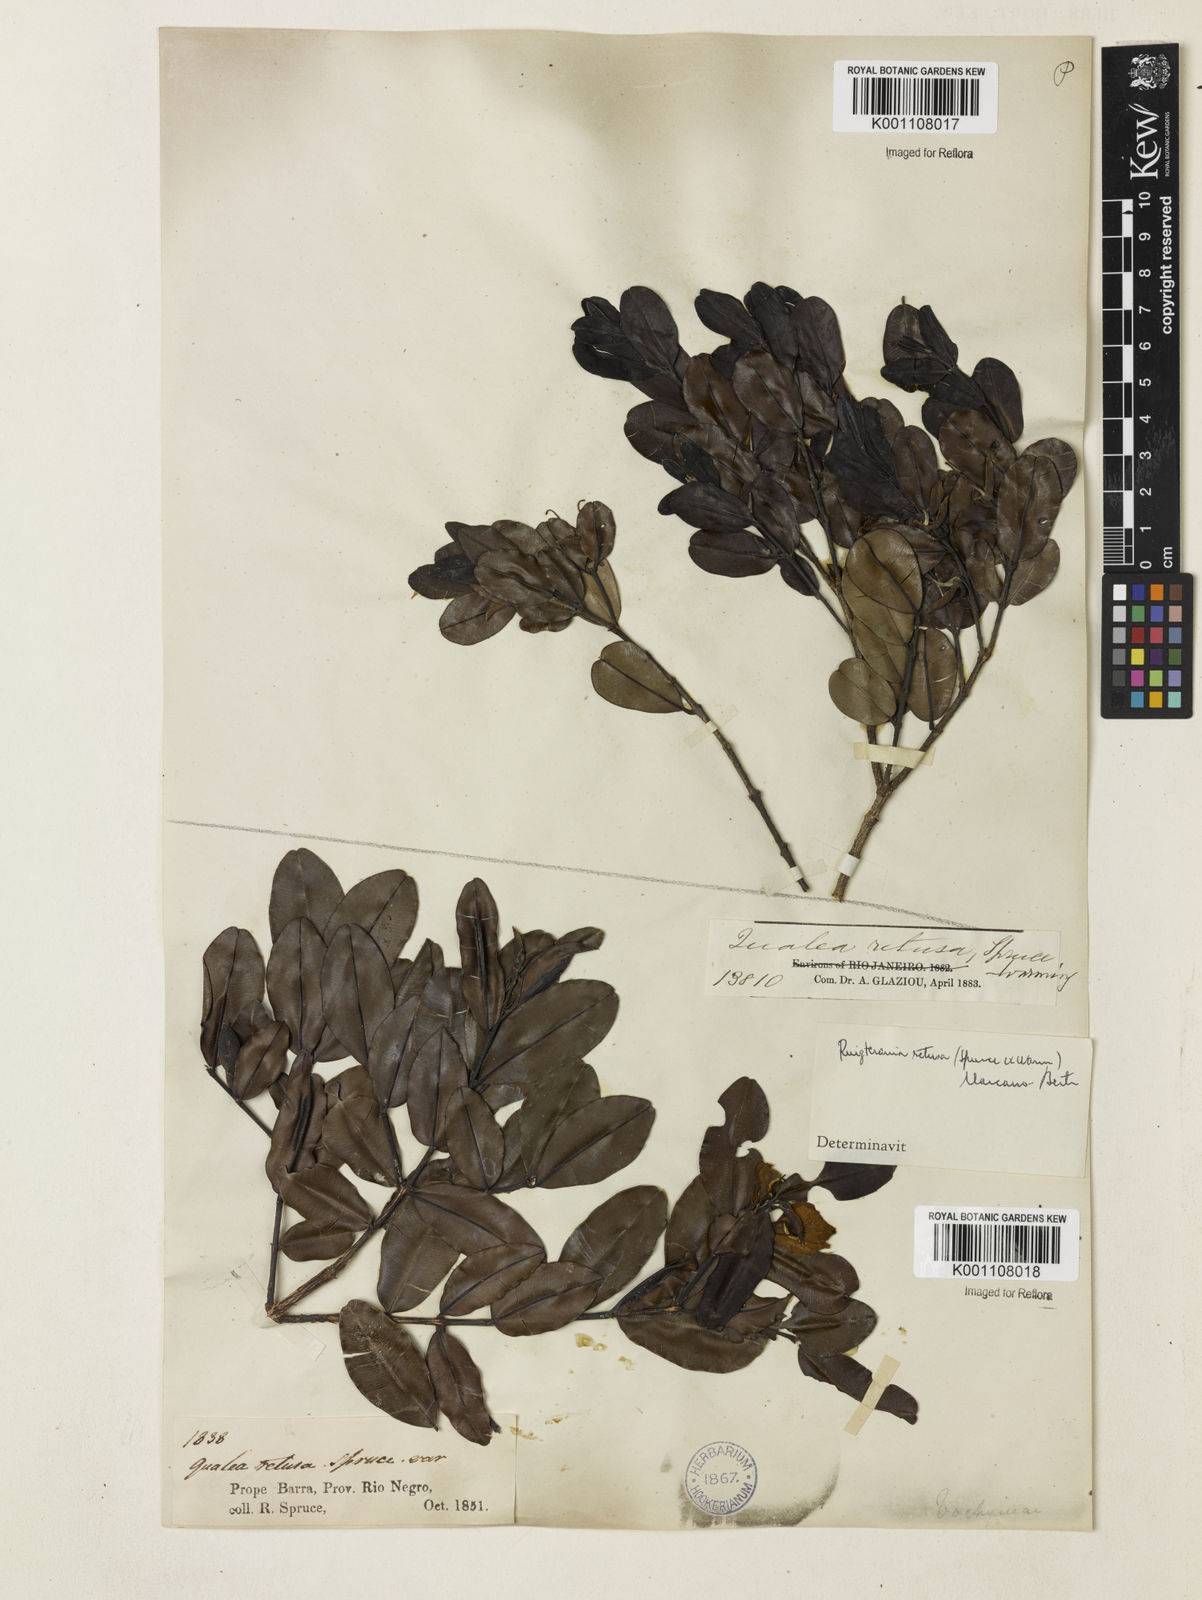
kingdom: Plantae
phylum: Tracheophyta
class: Magnoliopsida
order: Myrtales
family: Vochysiaceae
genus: Ruizterania
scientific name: Ruizterania retusa
